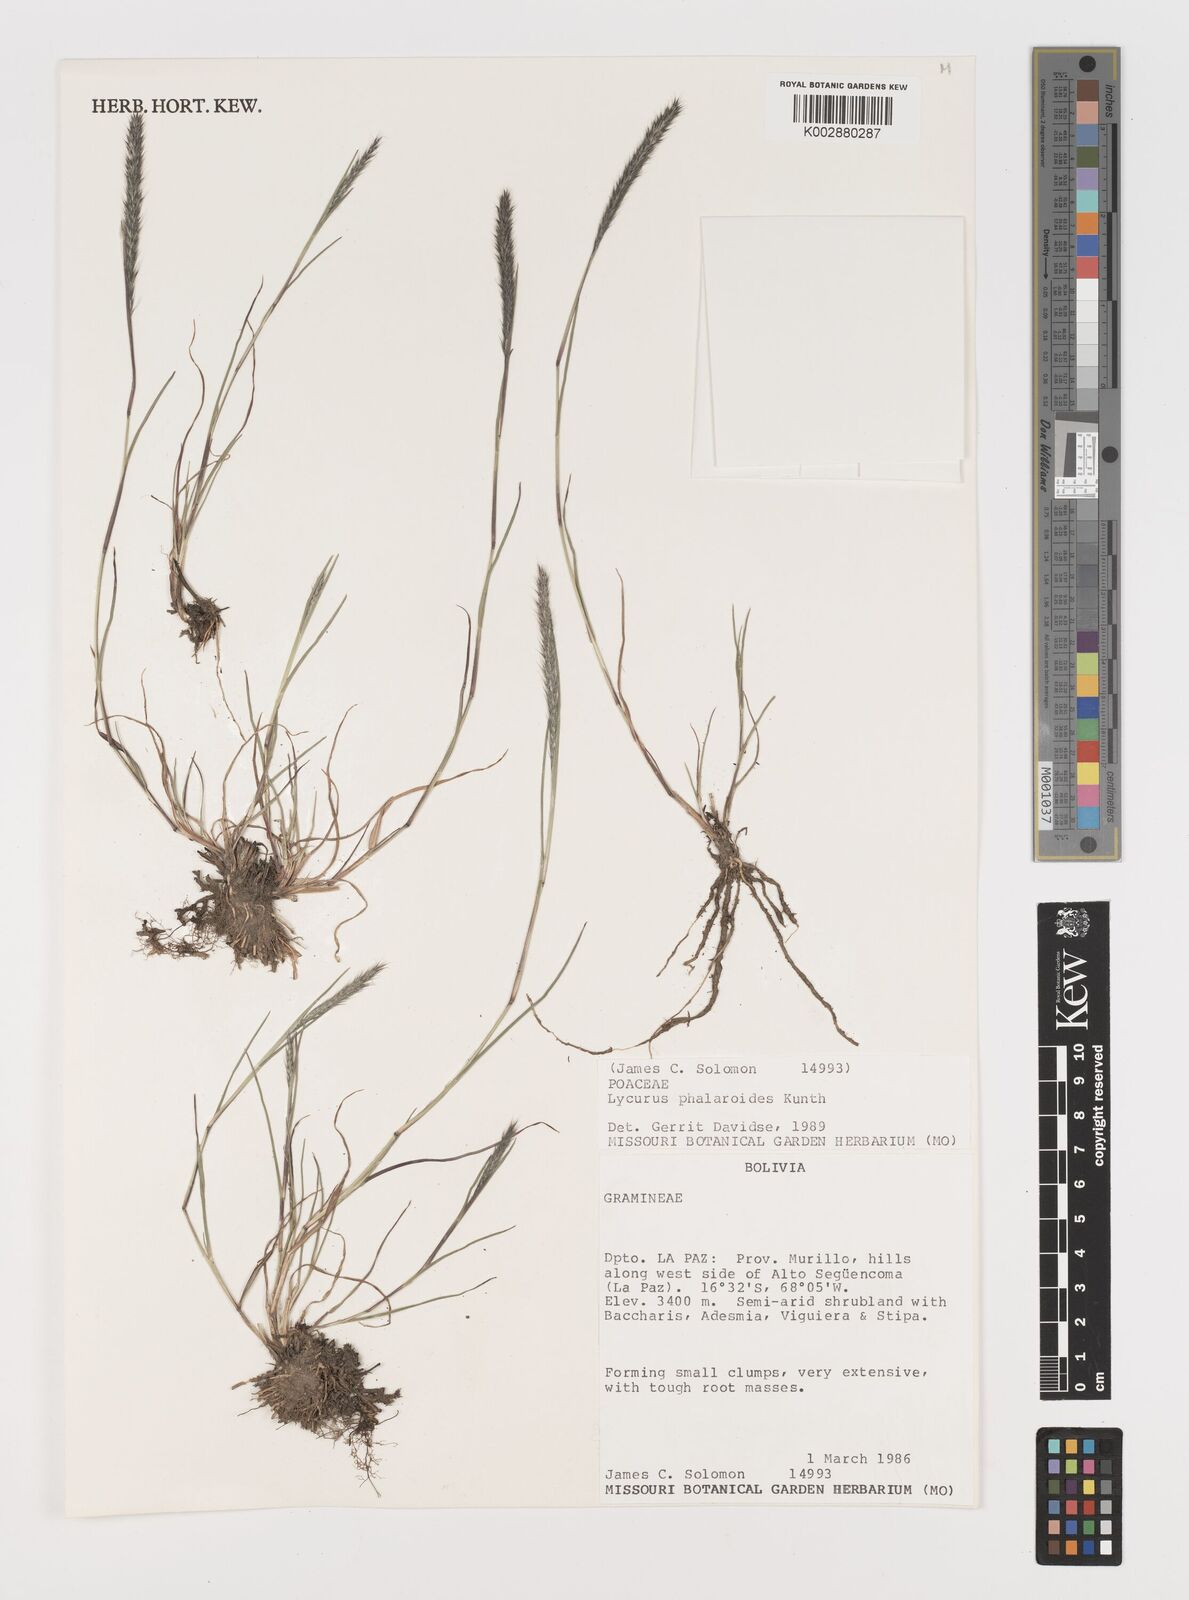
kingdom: Plantae
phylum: Tracheophyta
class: Liliopsida
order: Poales
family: Poaceae
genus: Muhlenbergia
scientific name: Muhlenbergia phleoides
